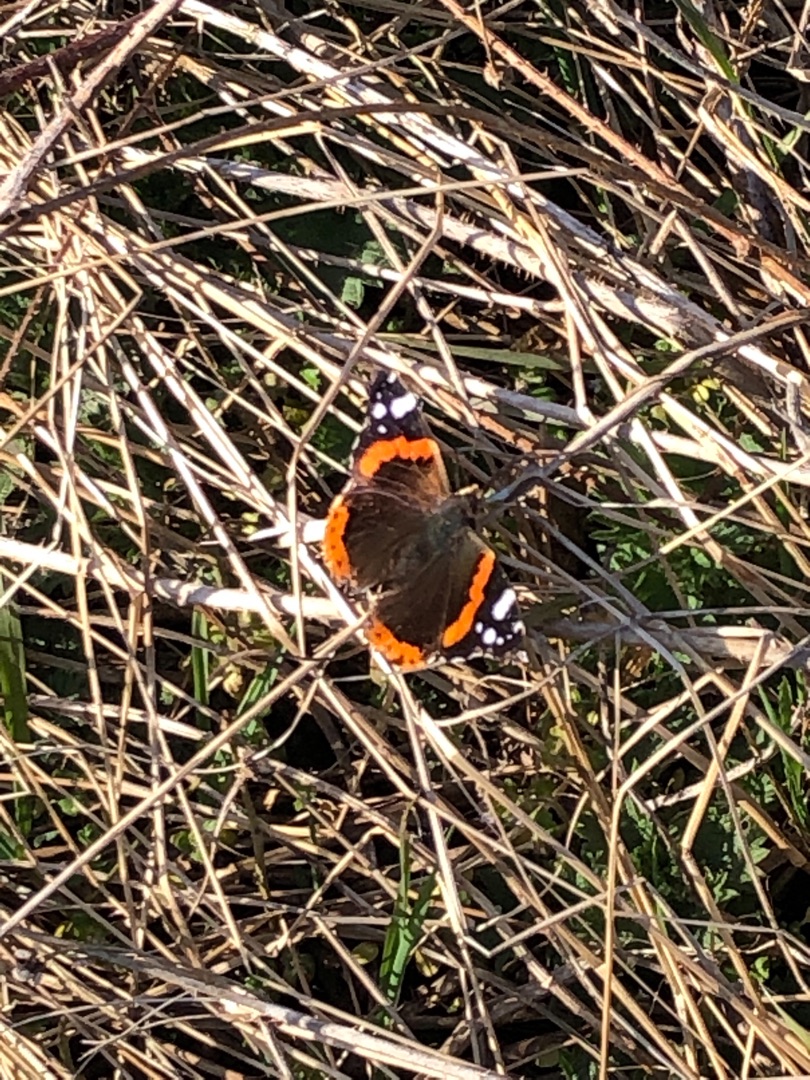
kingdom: Animalia
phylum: Arthropoda
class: Insecta
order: Lepidoptera
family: Nymphalidae
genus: Vanessa
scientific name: Vanessa atalanta
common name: Admiral
